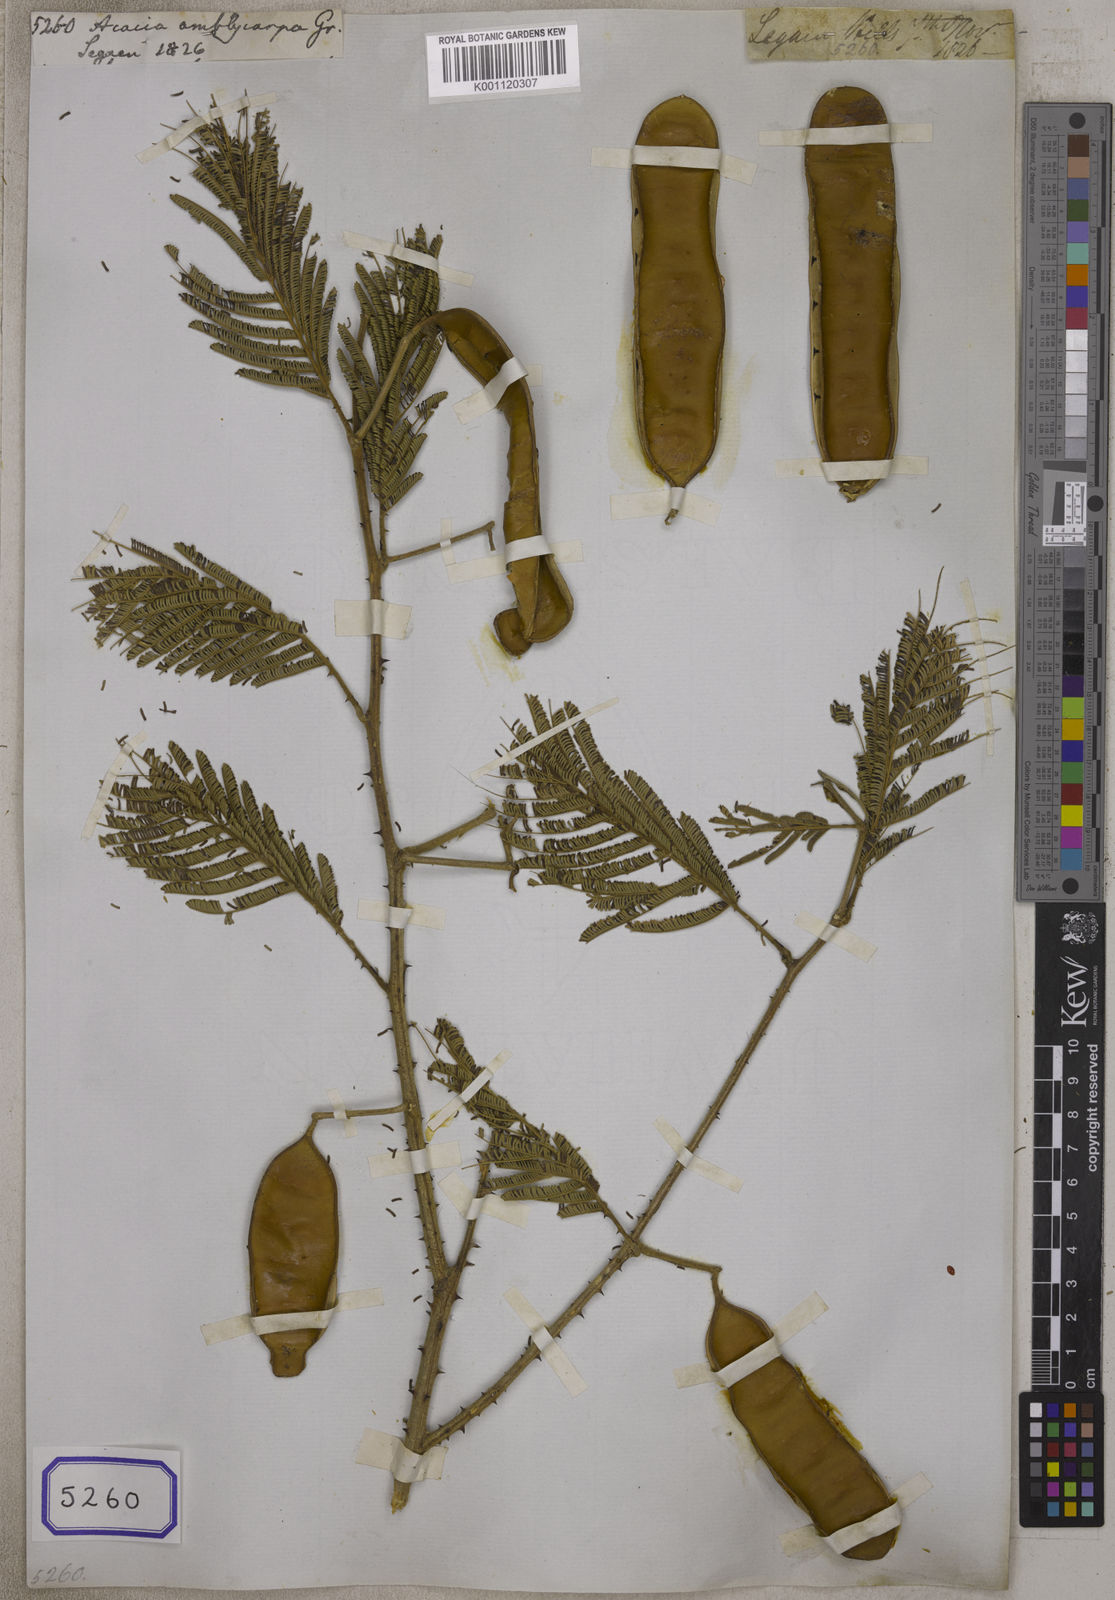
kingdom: Plantae
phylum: Tracheophyta
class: Magnoliopsida
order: Fabales
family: Fabaceae
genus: Acacia
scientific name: Acacia
